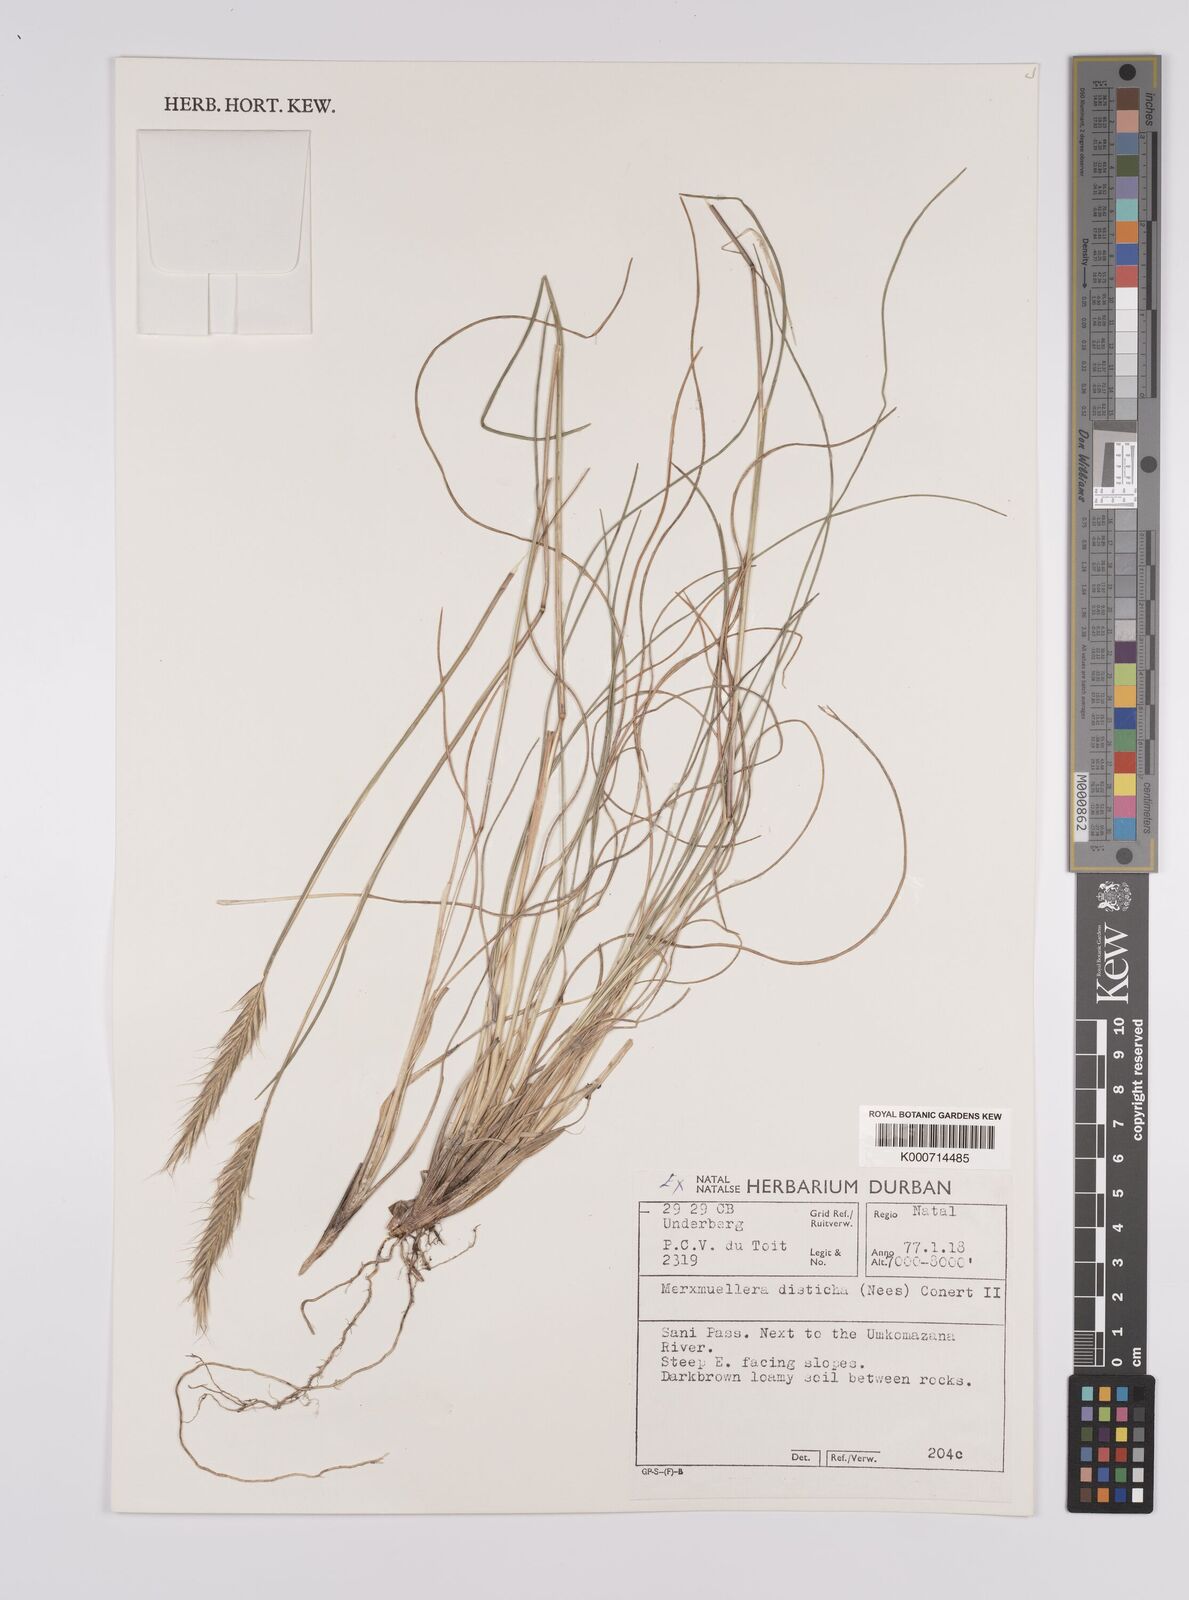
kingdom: Plantae
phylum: Tracheophyta
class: Liliopsida
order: Poales
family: Poaceae
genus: Tenaxia
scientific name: Tenaxia disticha
